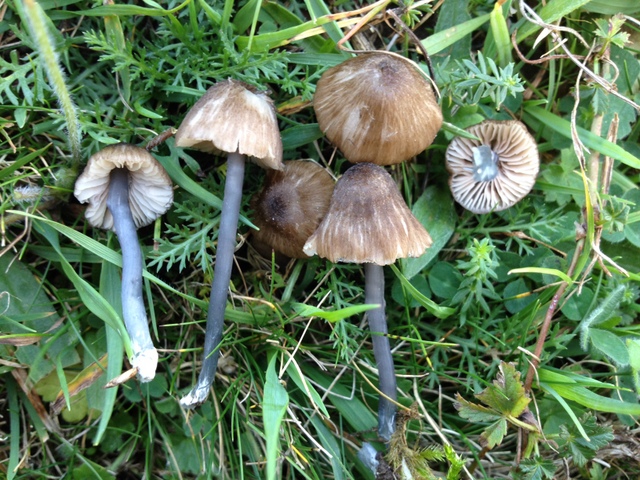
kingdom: Fungi
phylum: Basidiomycota
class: Agaricomycetes
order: Agaricales
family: Entolomataceae
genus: Entoloma
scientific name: Entoloma isborscanum
